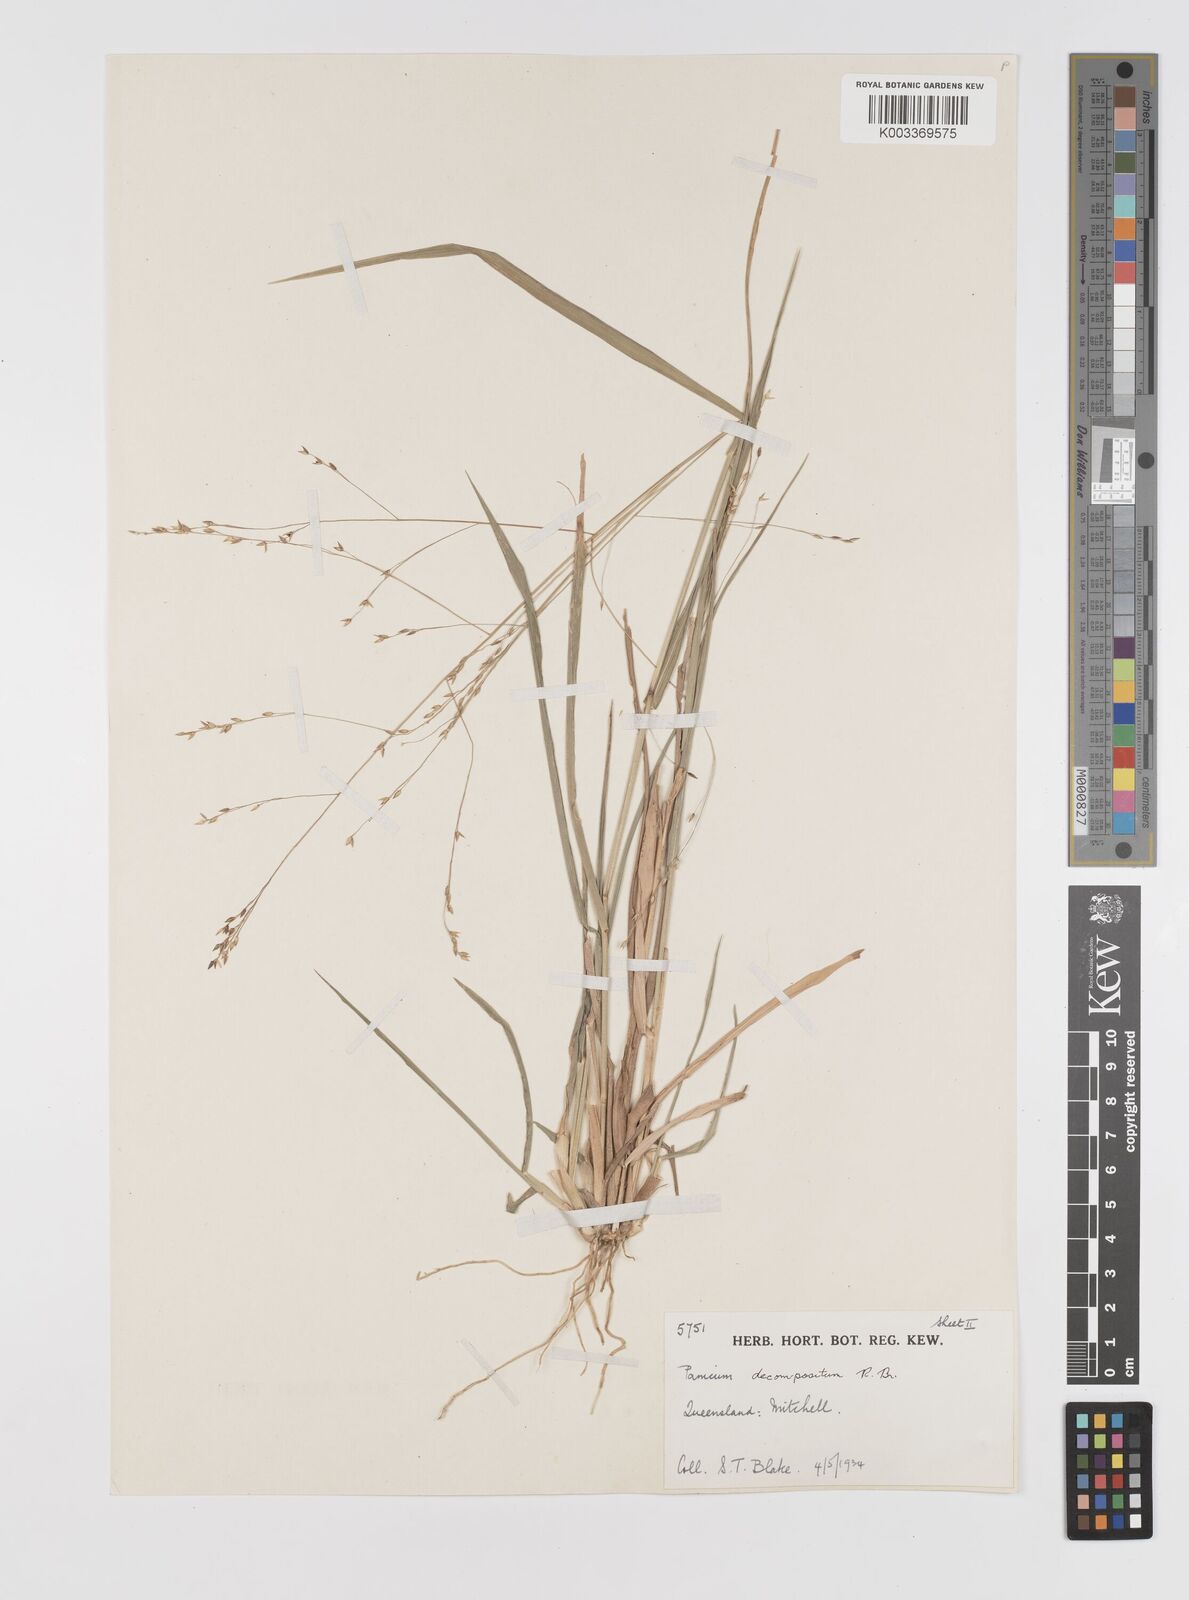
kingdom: Plantae
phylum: Tracheophyta
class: Liliopsida
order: Poales
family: Poaceae
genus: Panicum
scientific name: Panicum decompositum
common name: Australian millet
